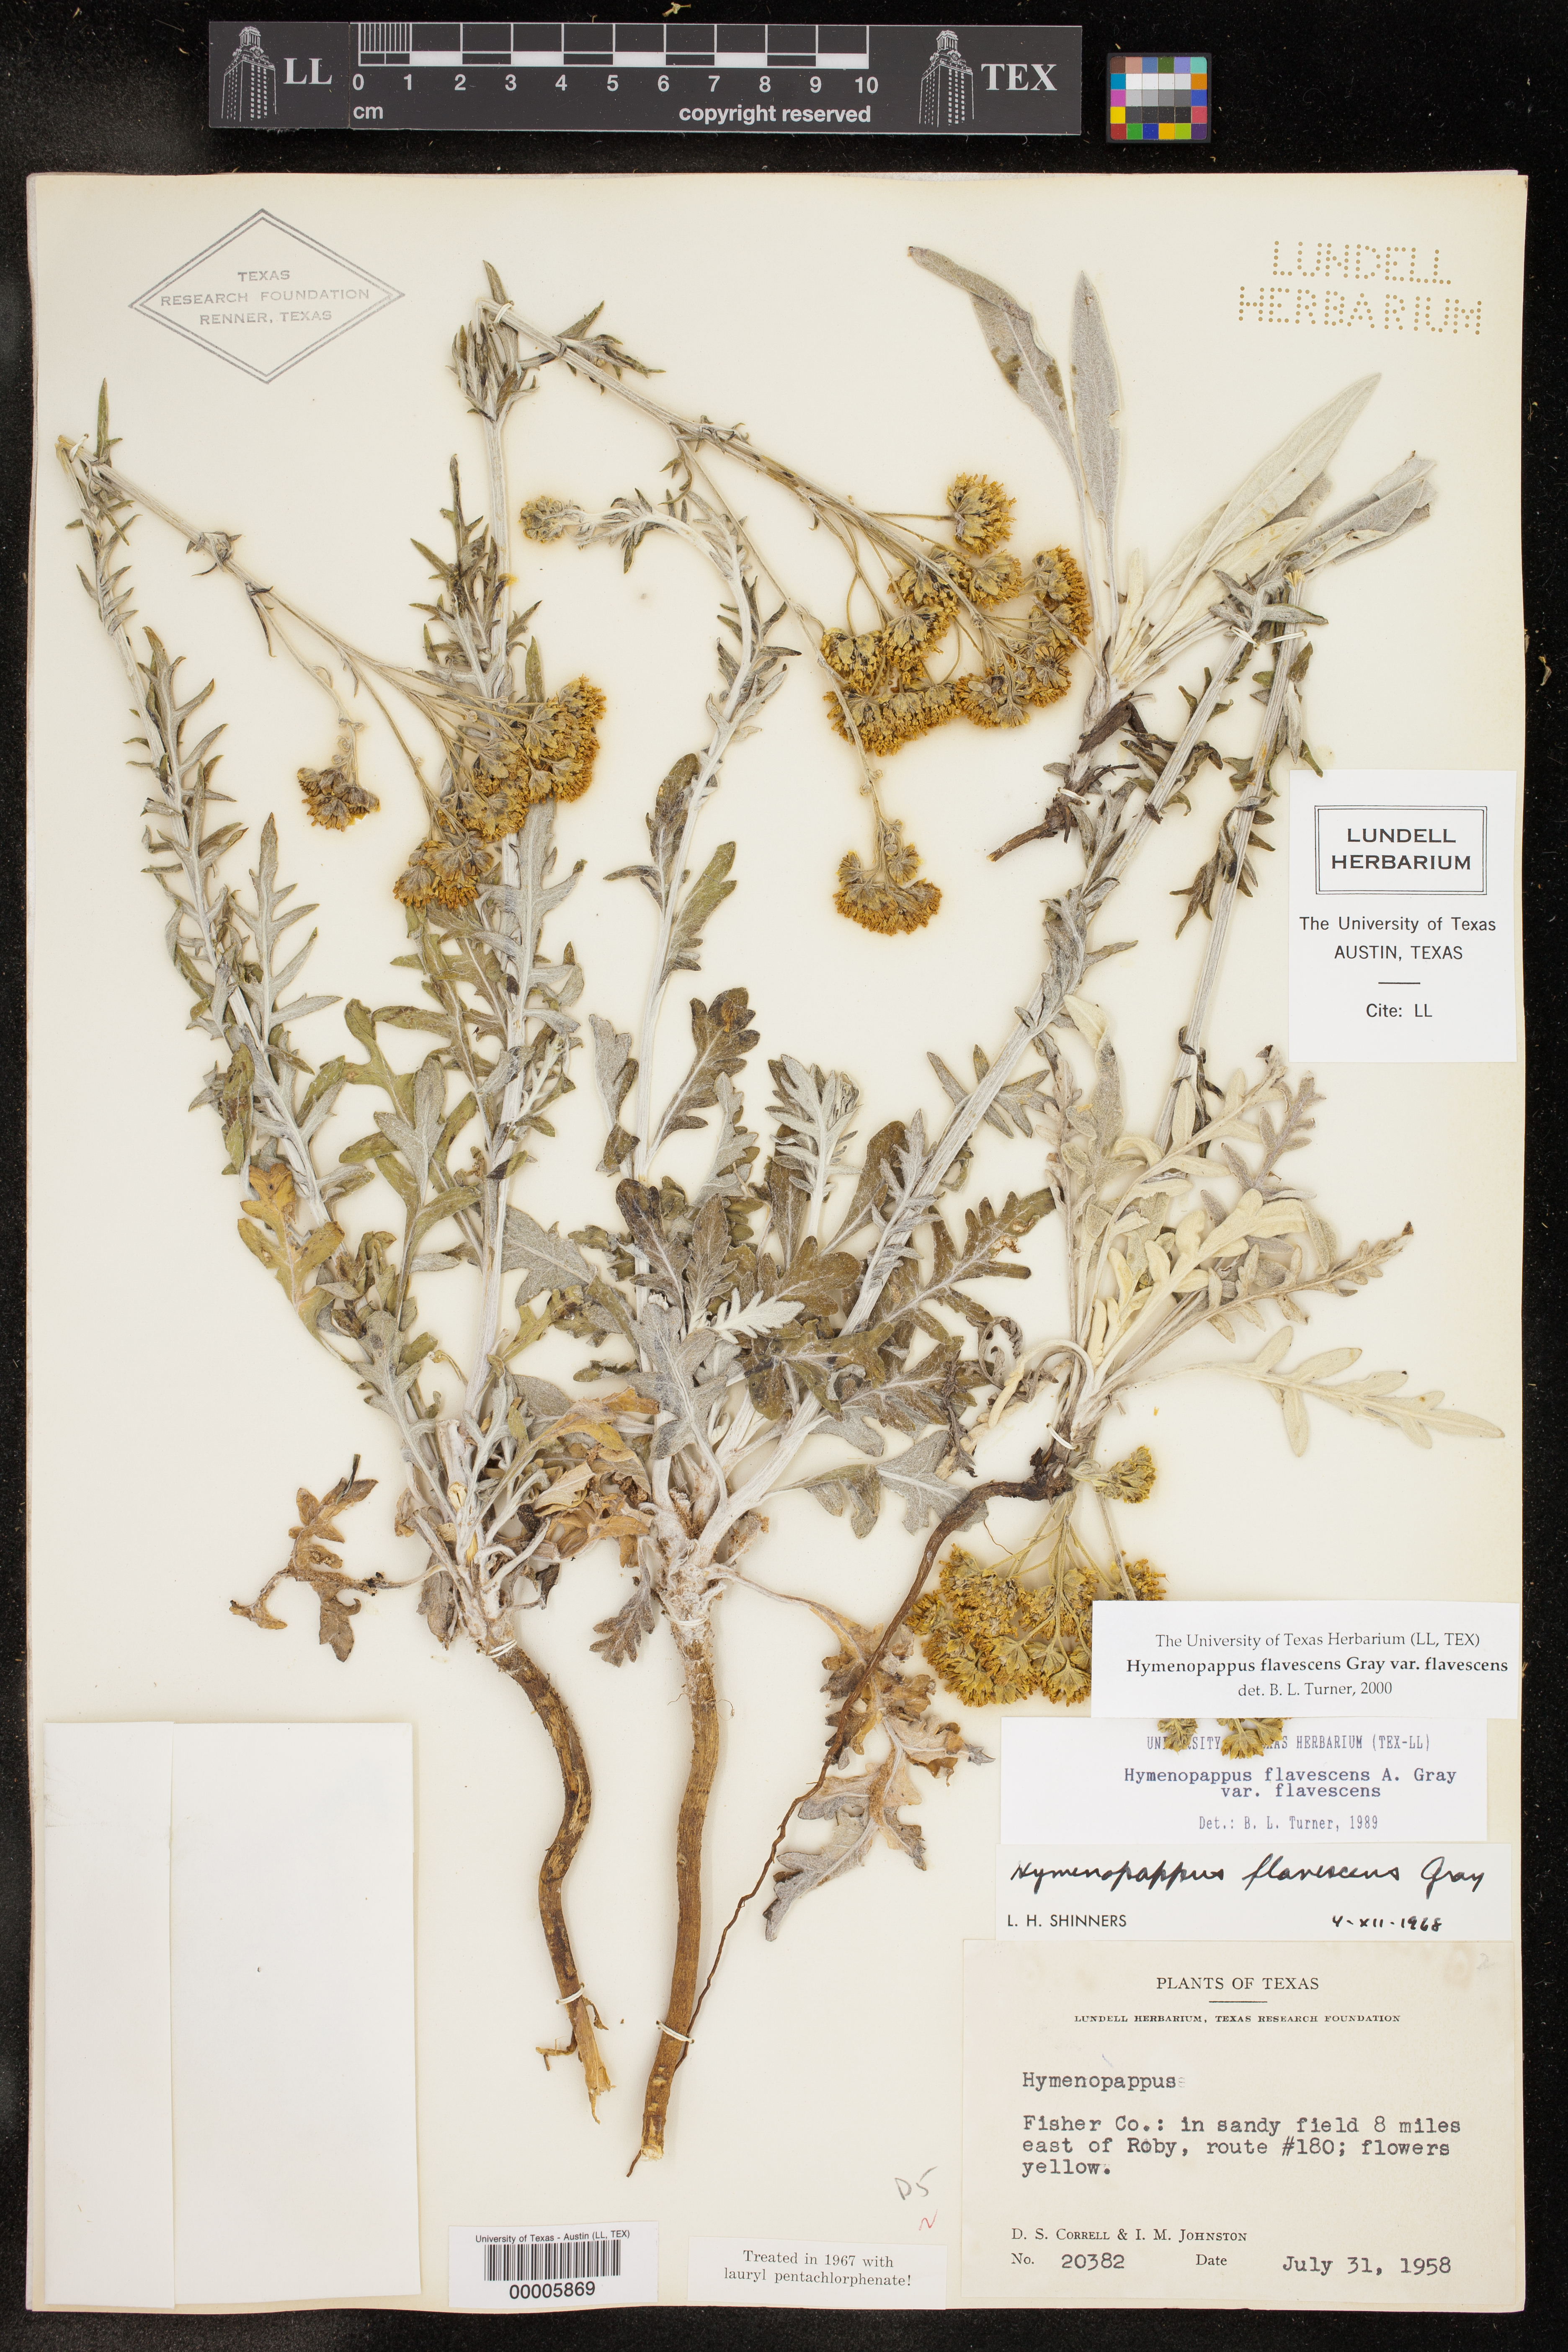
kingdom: Plantae
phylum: Tracheophyta
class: Magnoliopsida
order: Asterales
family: Asteraceae
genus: Hymenopappus
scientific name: Hymenopappus flavescens
